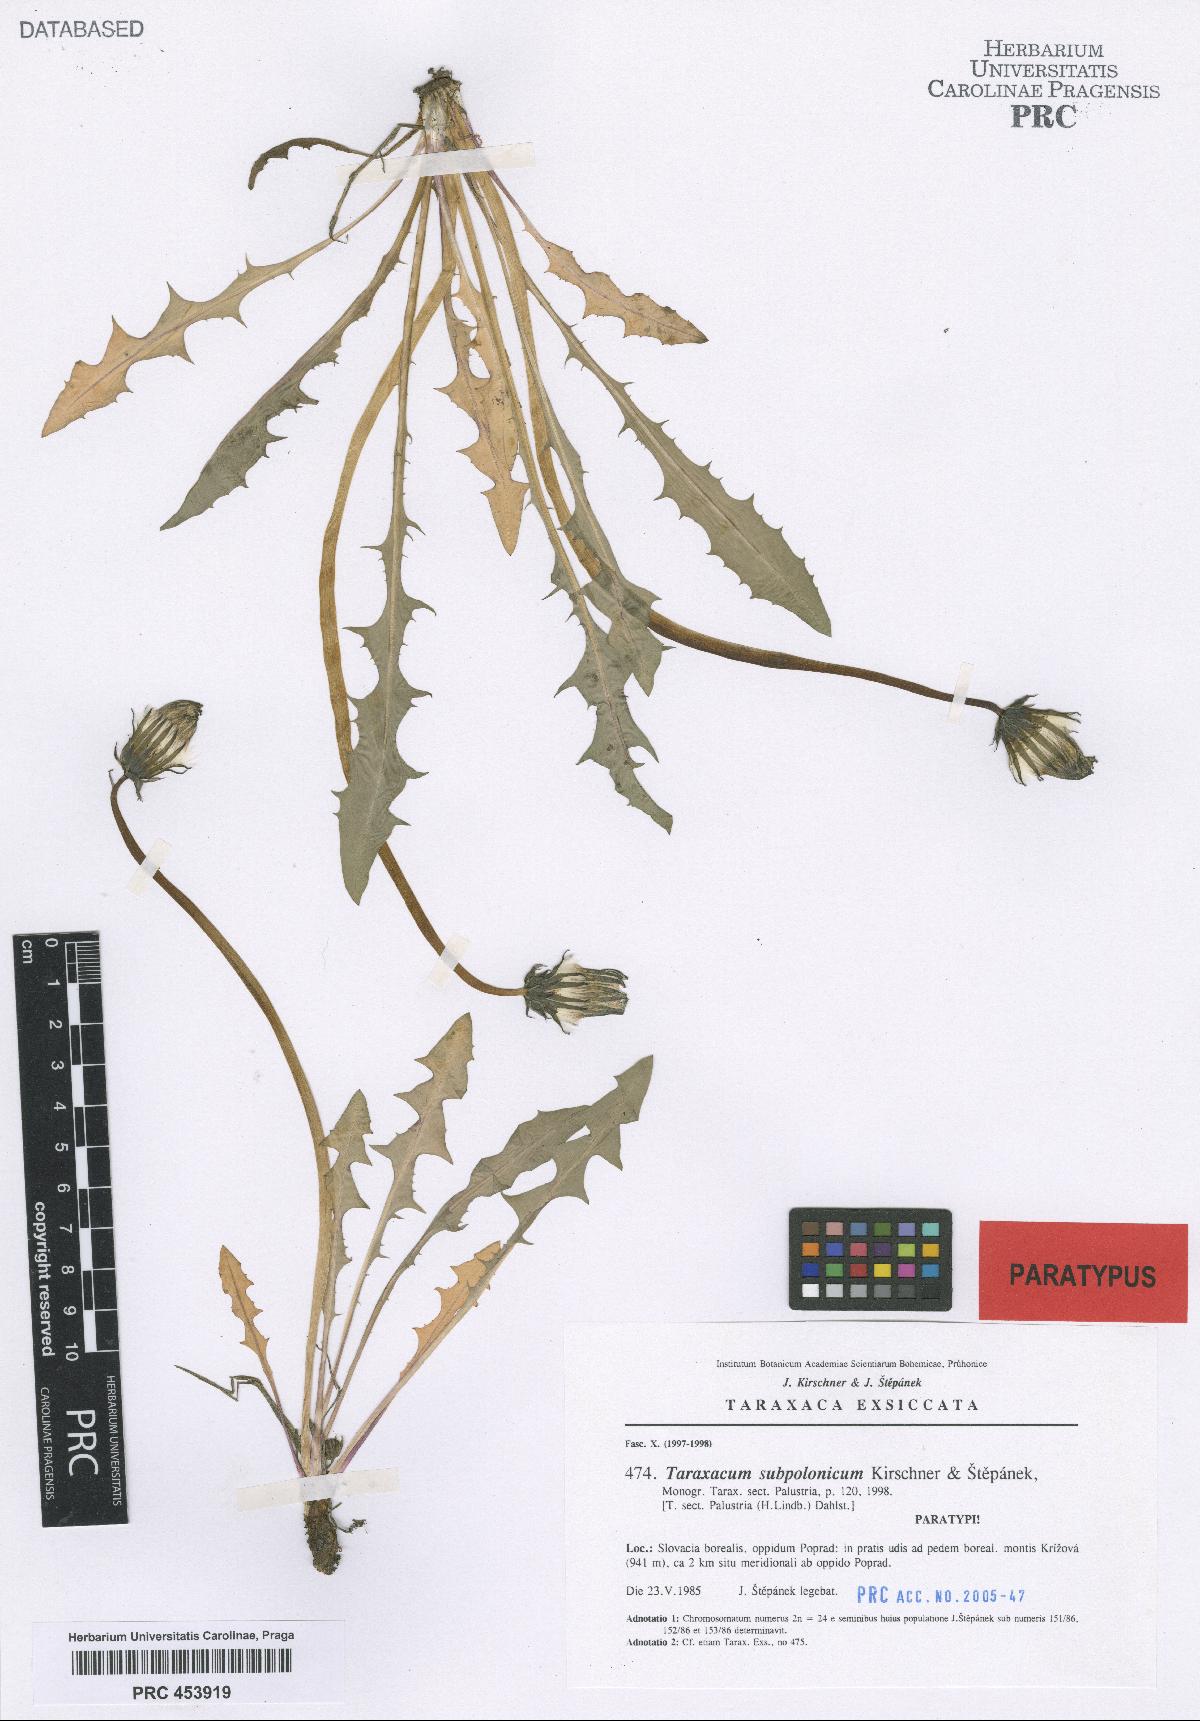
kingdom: Plantae
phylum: Tracheophyta
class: Magnoliopsida
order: Asterales
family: Asteraceae
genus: Taraxacum
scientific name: Taraxacum subpolonicum
